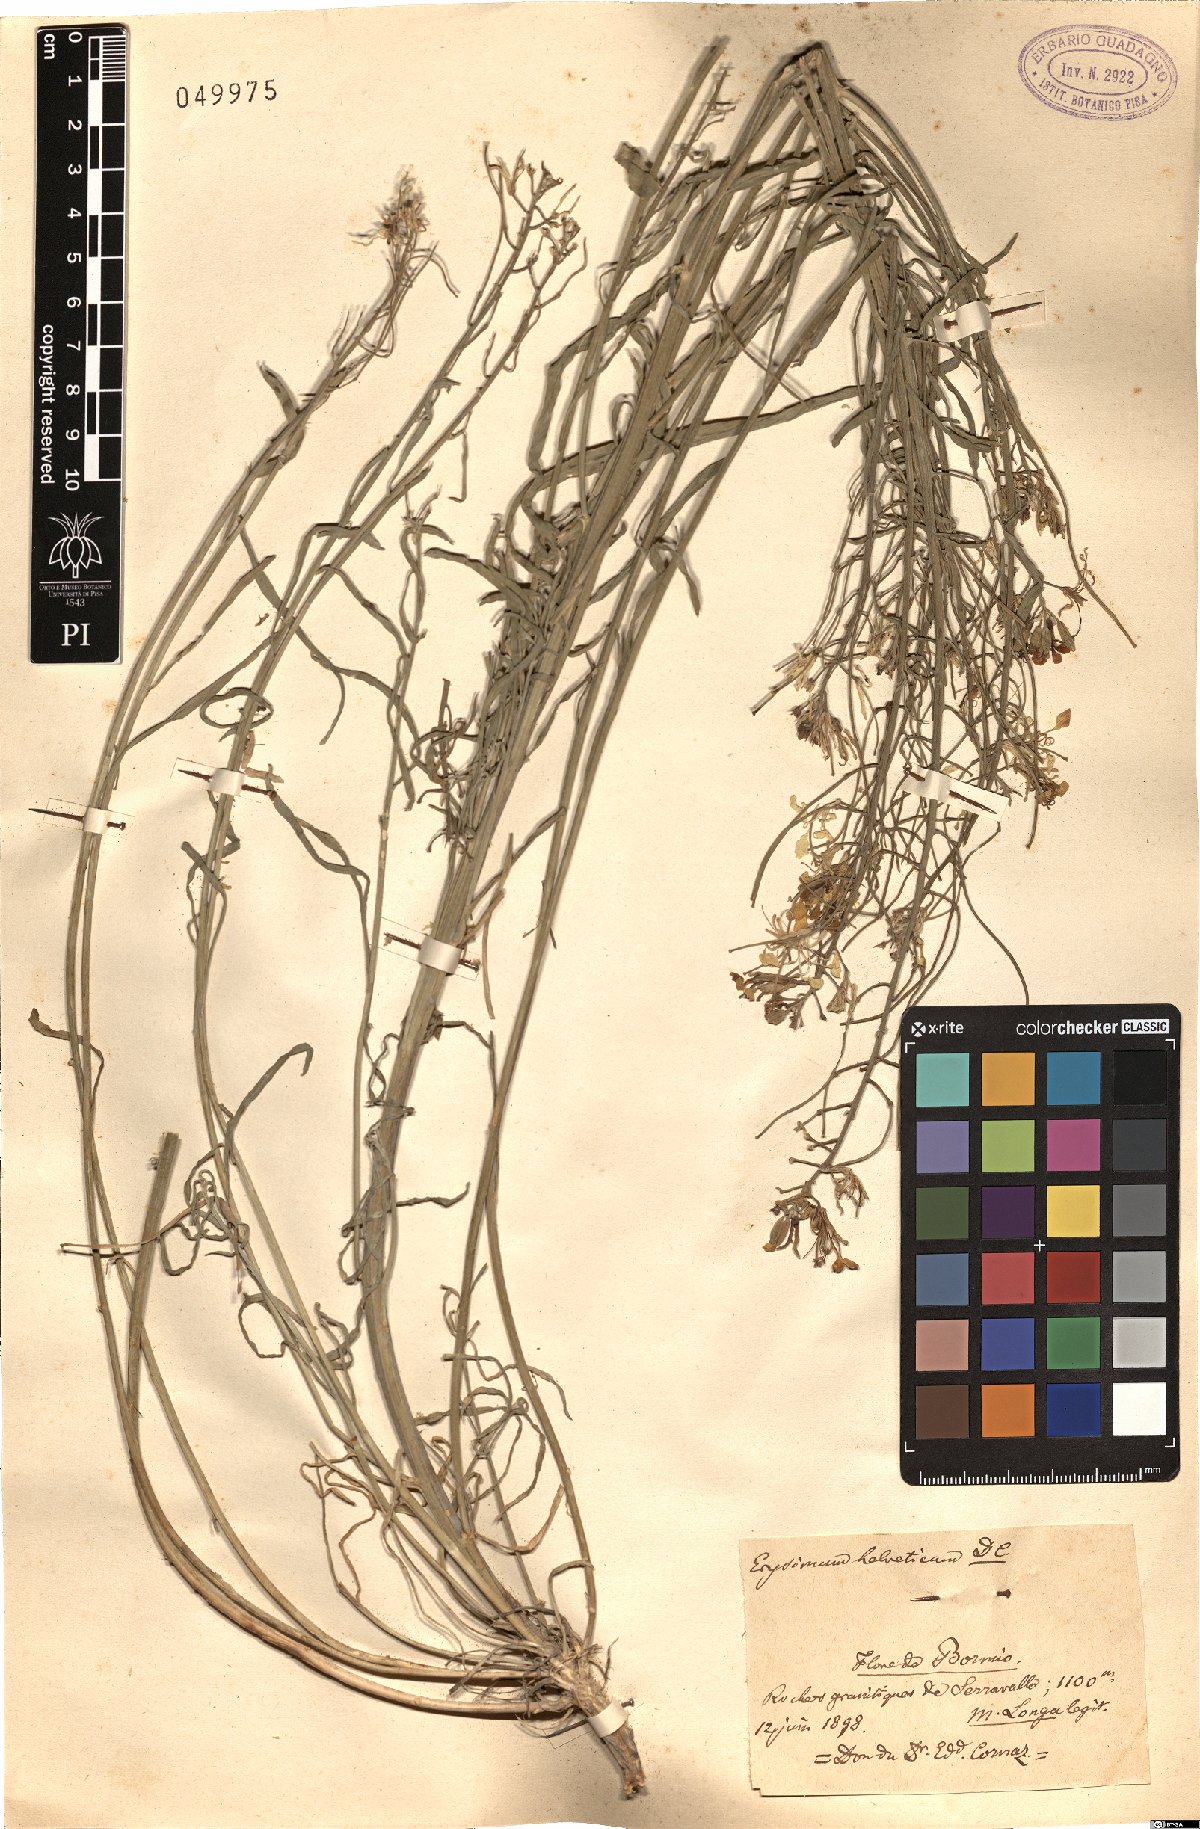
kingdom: Plantae
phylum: Tracheophyta
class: Magnoliopsida
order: Brassicales
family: Brassicaceae
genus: Erysimum
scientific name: Erysimum rhaeticum
